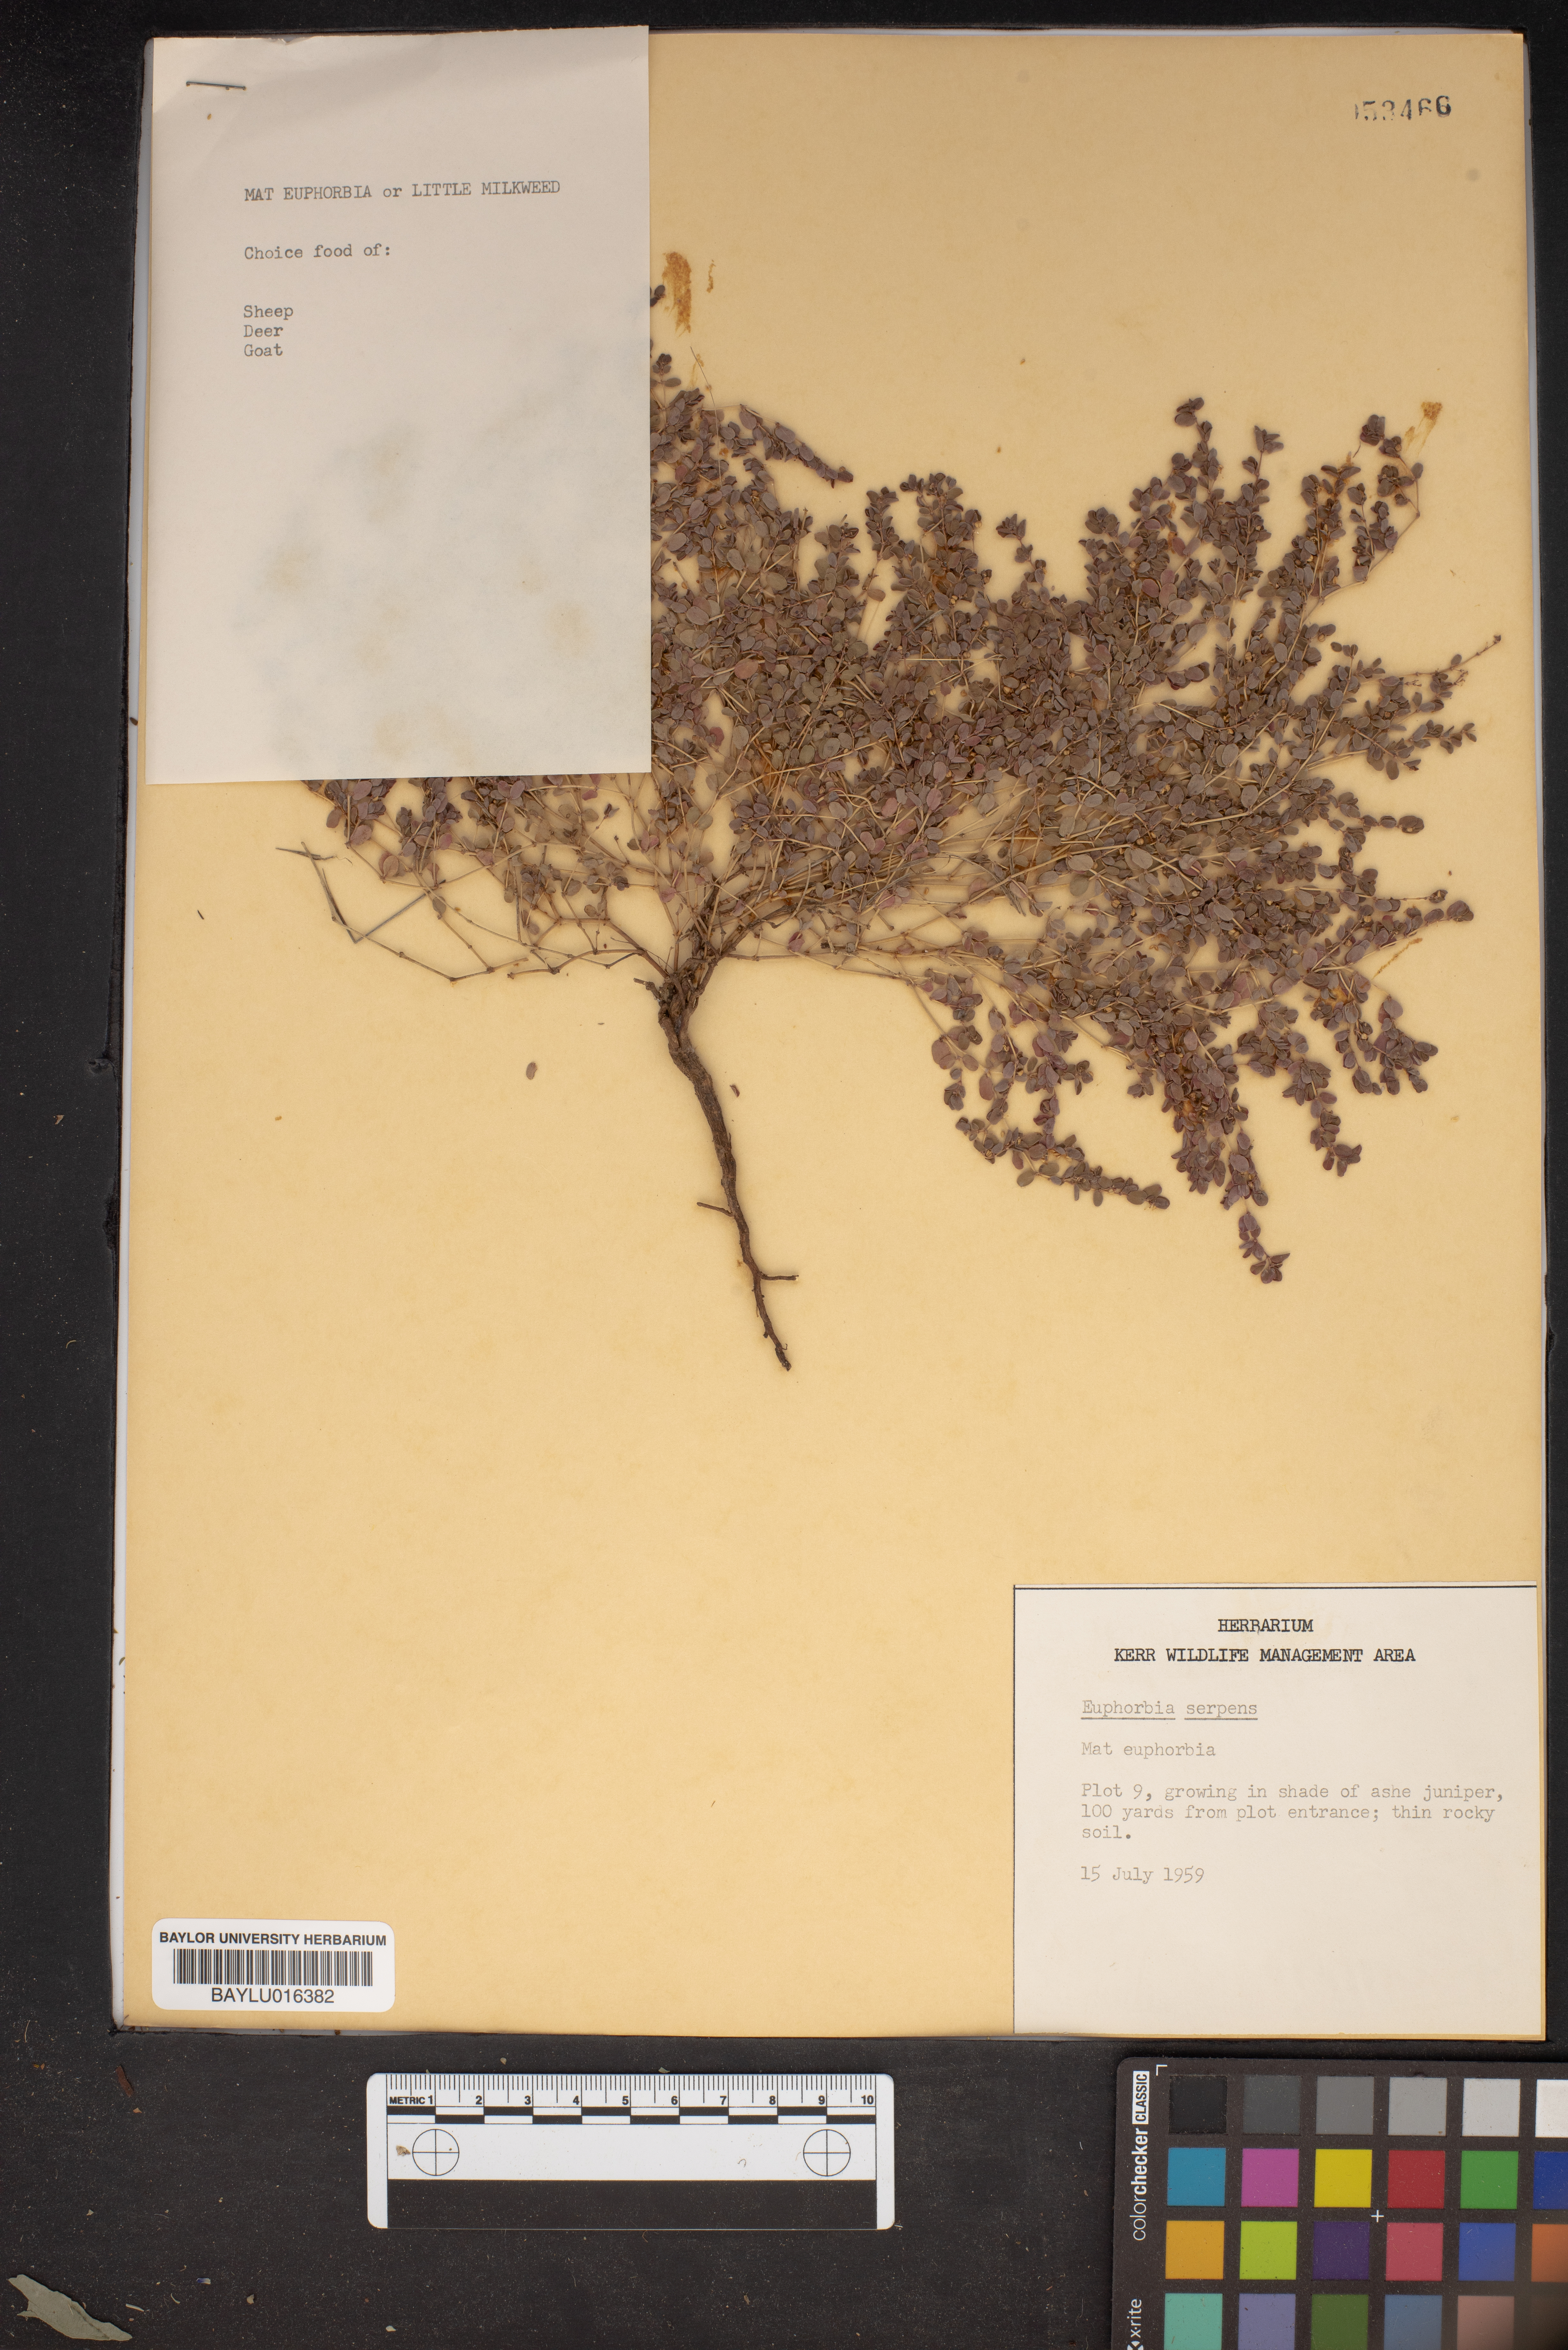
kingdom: Plantae
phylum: Tracheophyta
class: Magnoliopsida
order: Malpighiales
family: Euphorbiaceae
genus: Euphorbia
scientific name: Euphorbia serpens
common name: Matted sandmat
